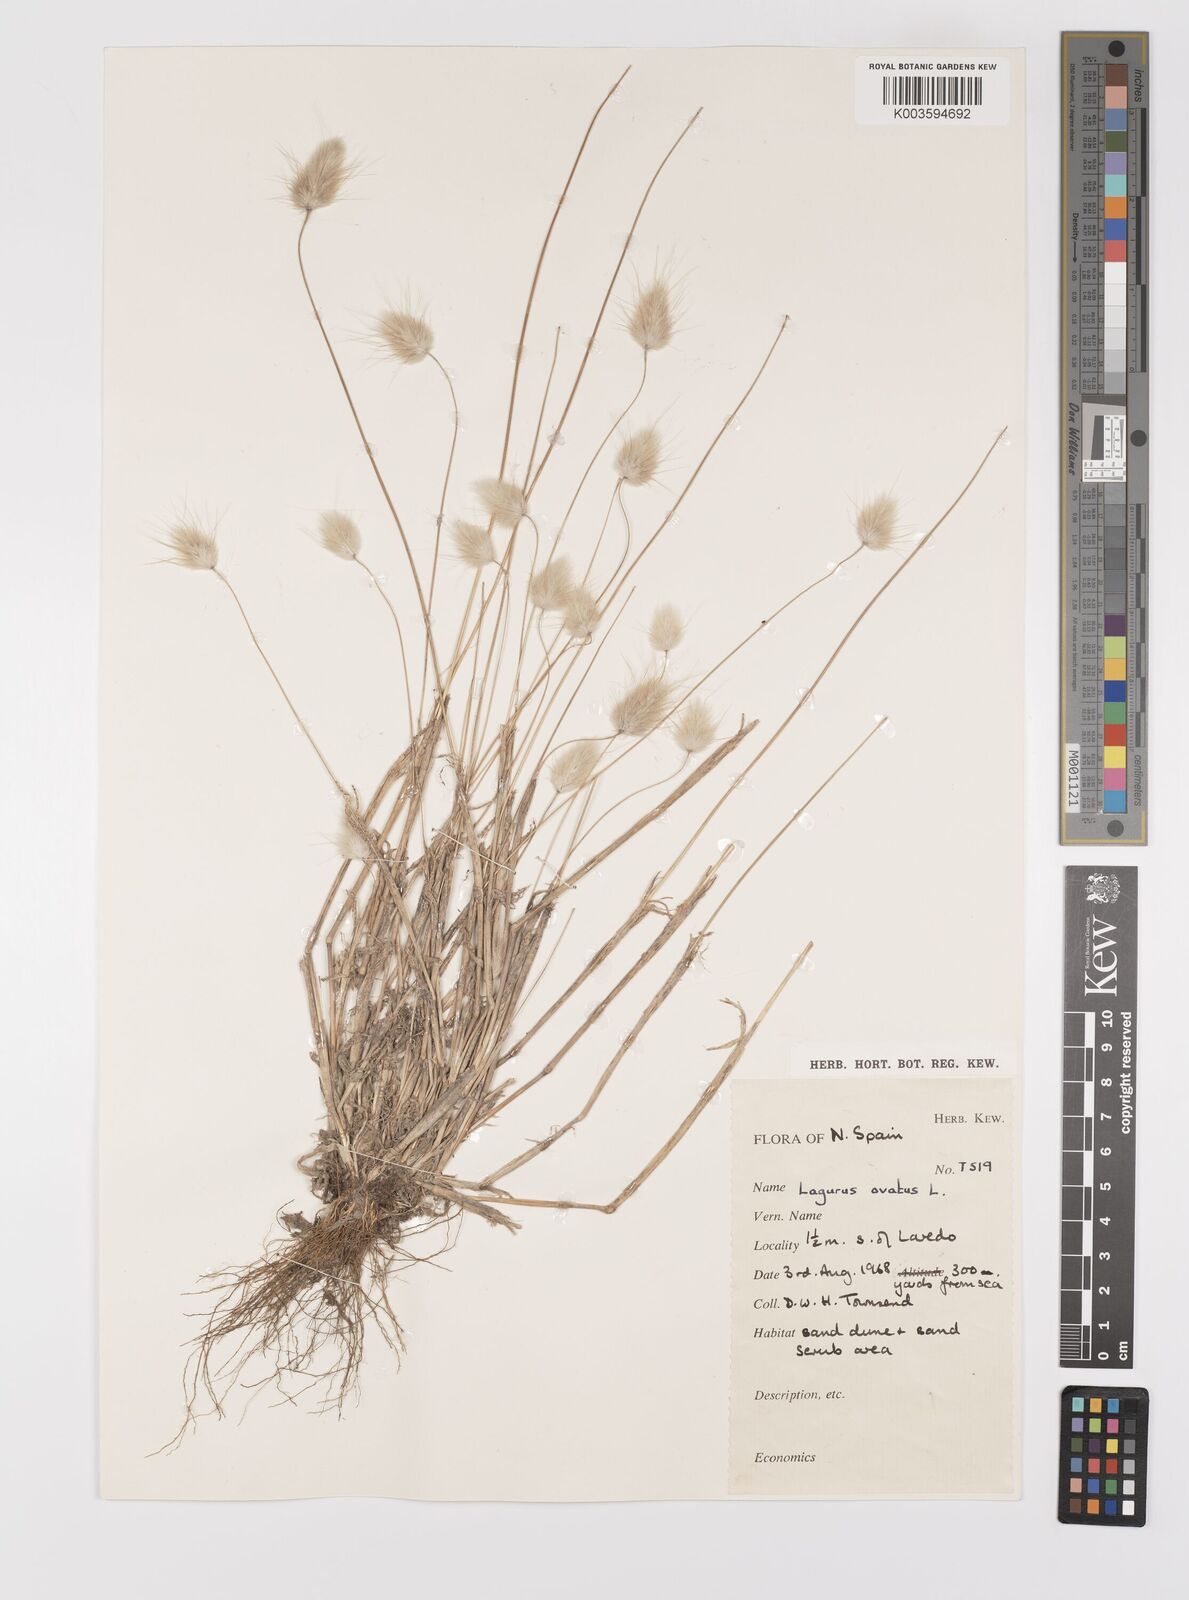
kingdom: Plantae
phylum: Tracheophyta
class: Liliopsida
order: Poales
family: Poaceae
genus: Lagurus
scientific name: Lagurus ovatus
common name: Hare's-tail
